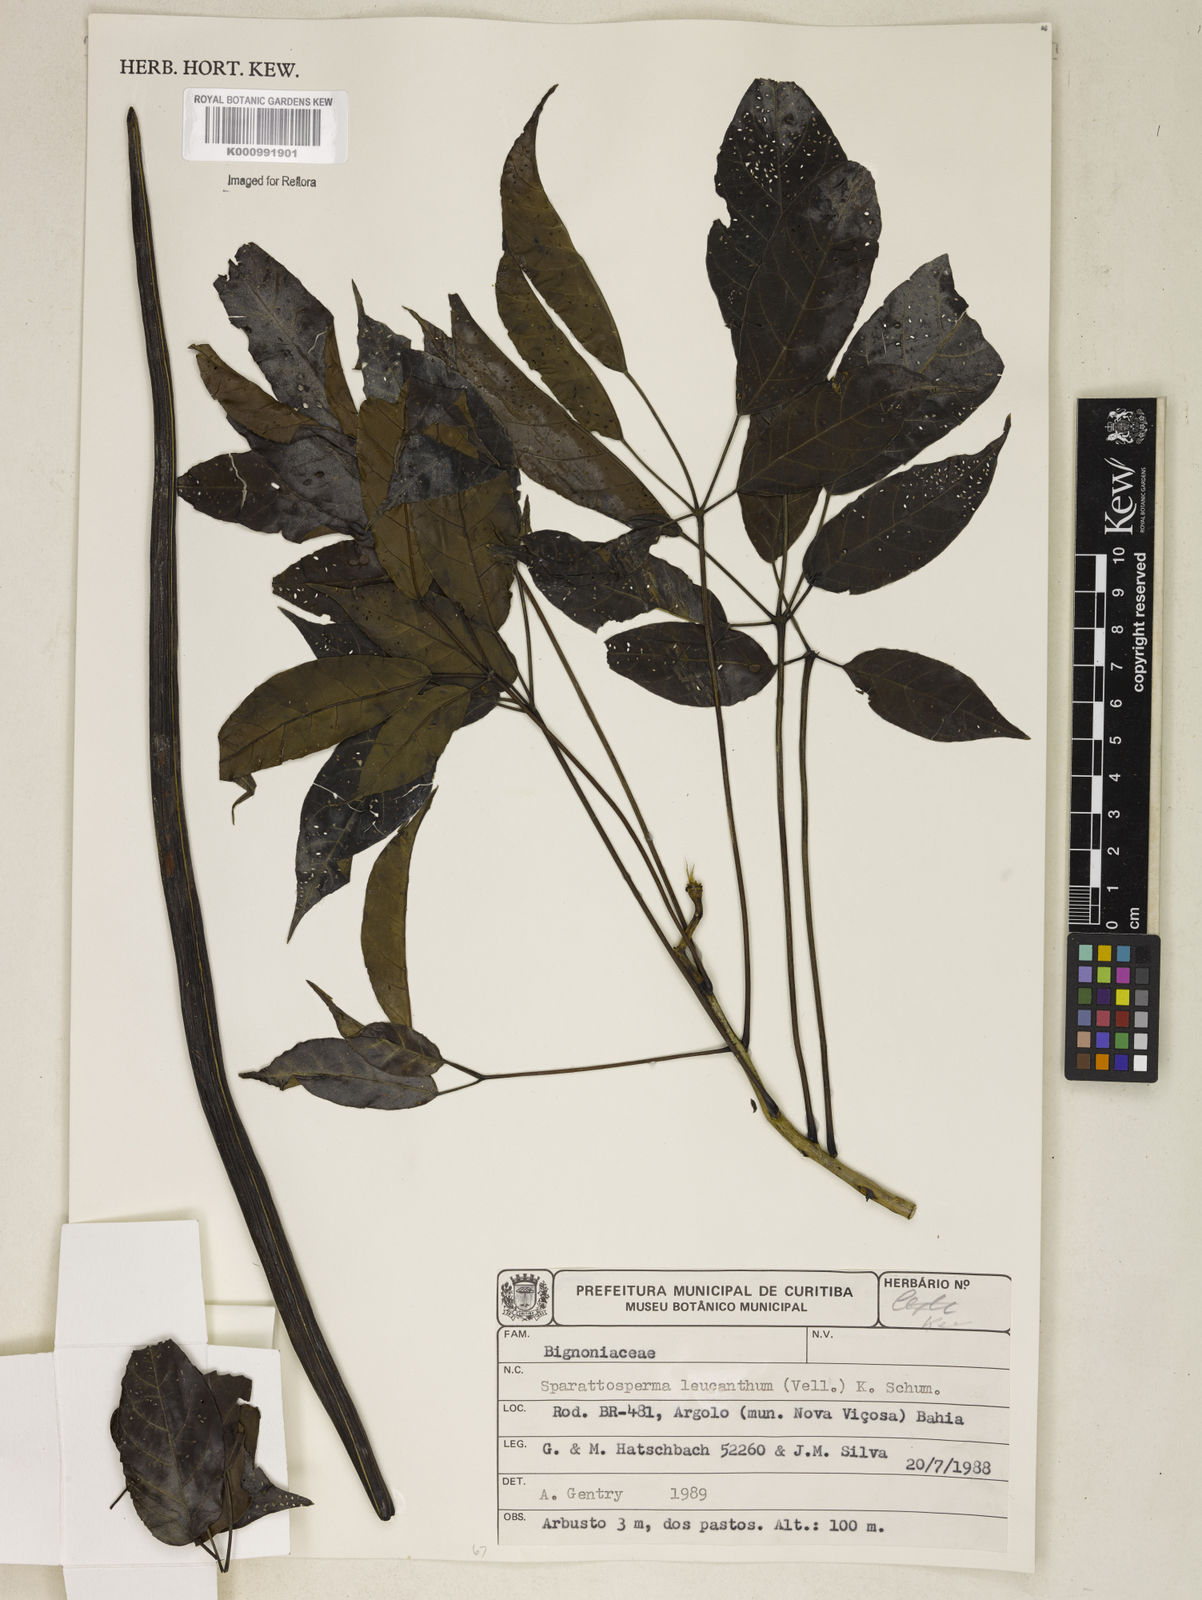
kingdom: Plantae
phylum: Tracheophyta
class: Magnoliopsida
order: Lamiales
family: Bignoniaceae
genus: Sparattosperma
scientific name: Sparattosperma leucanthum
